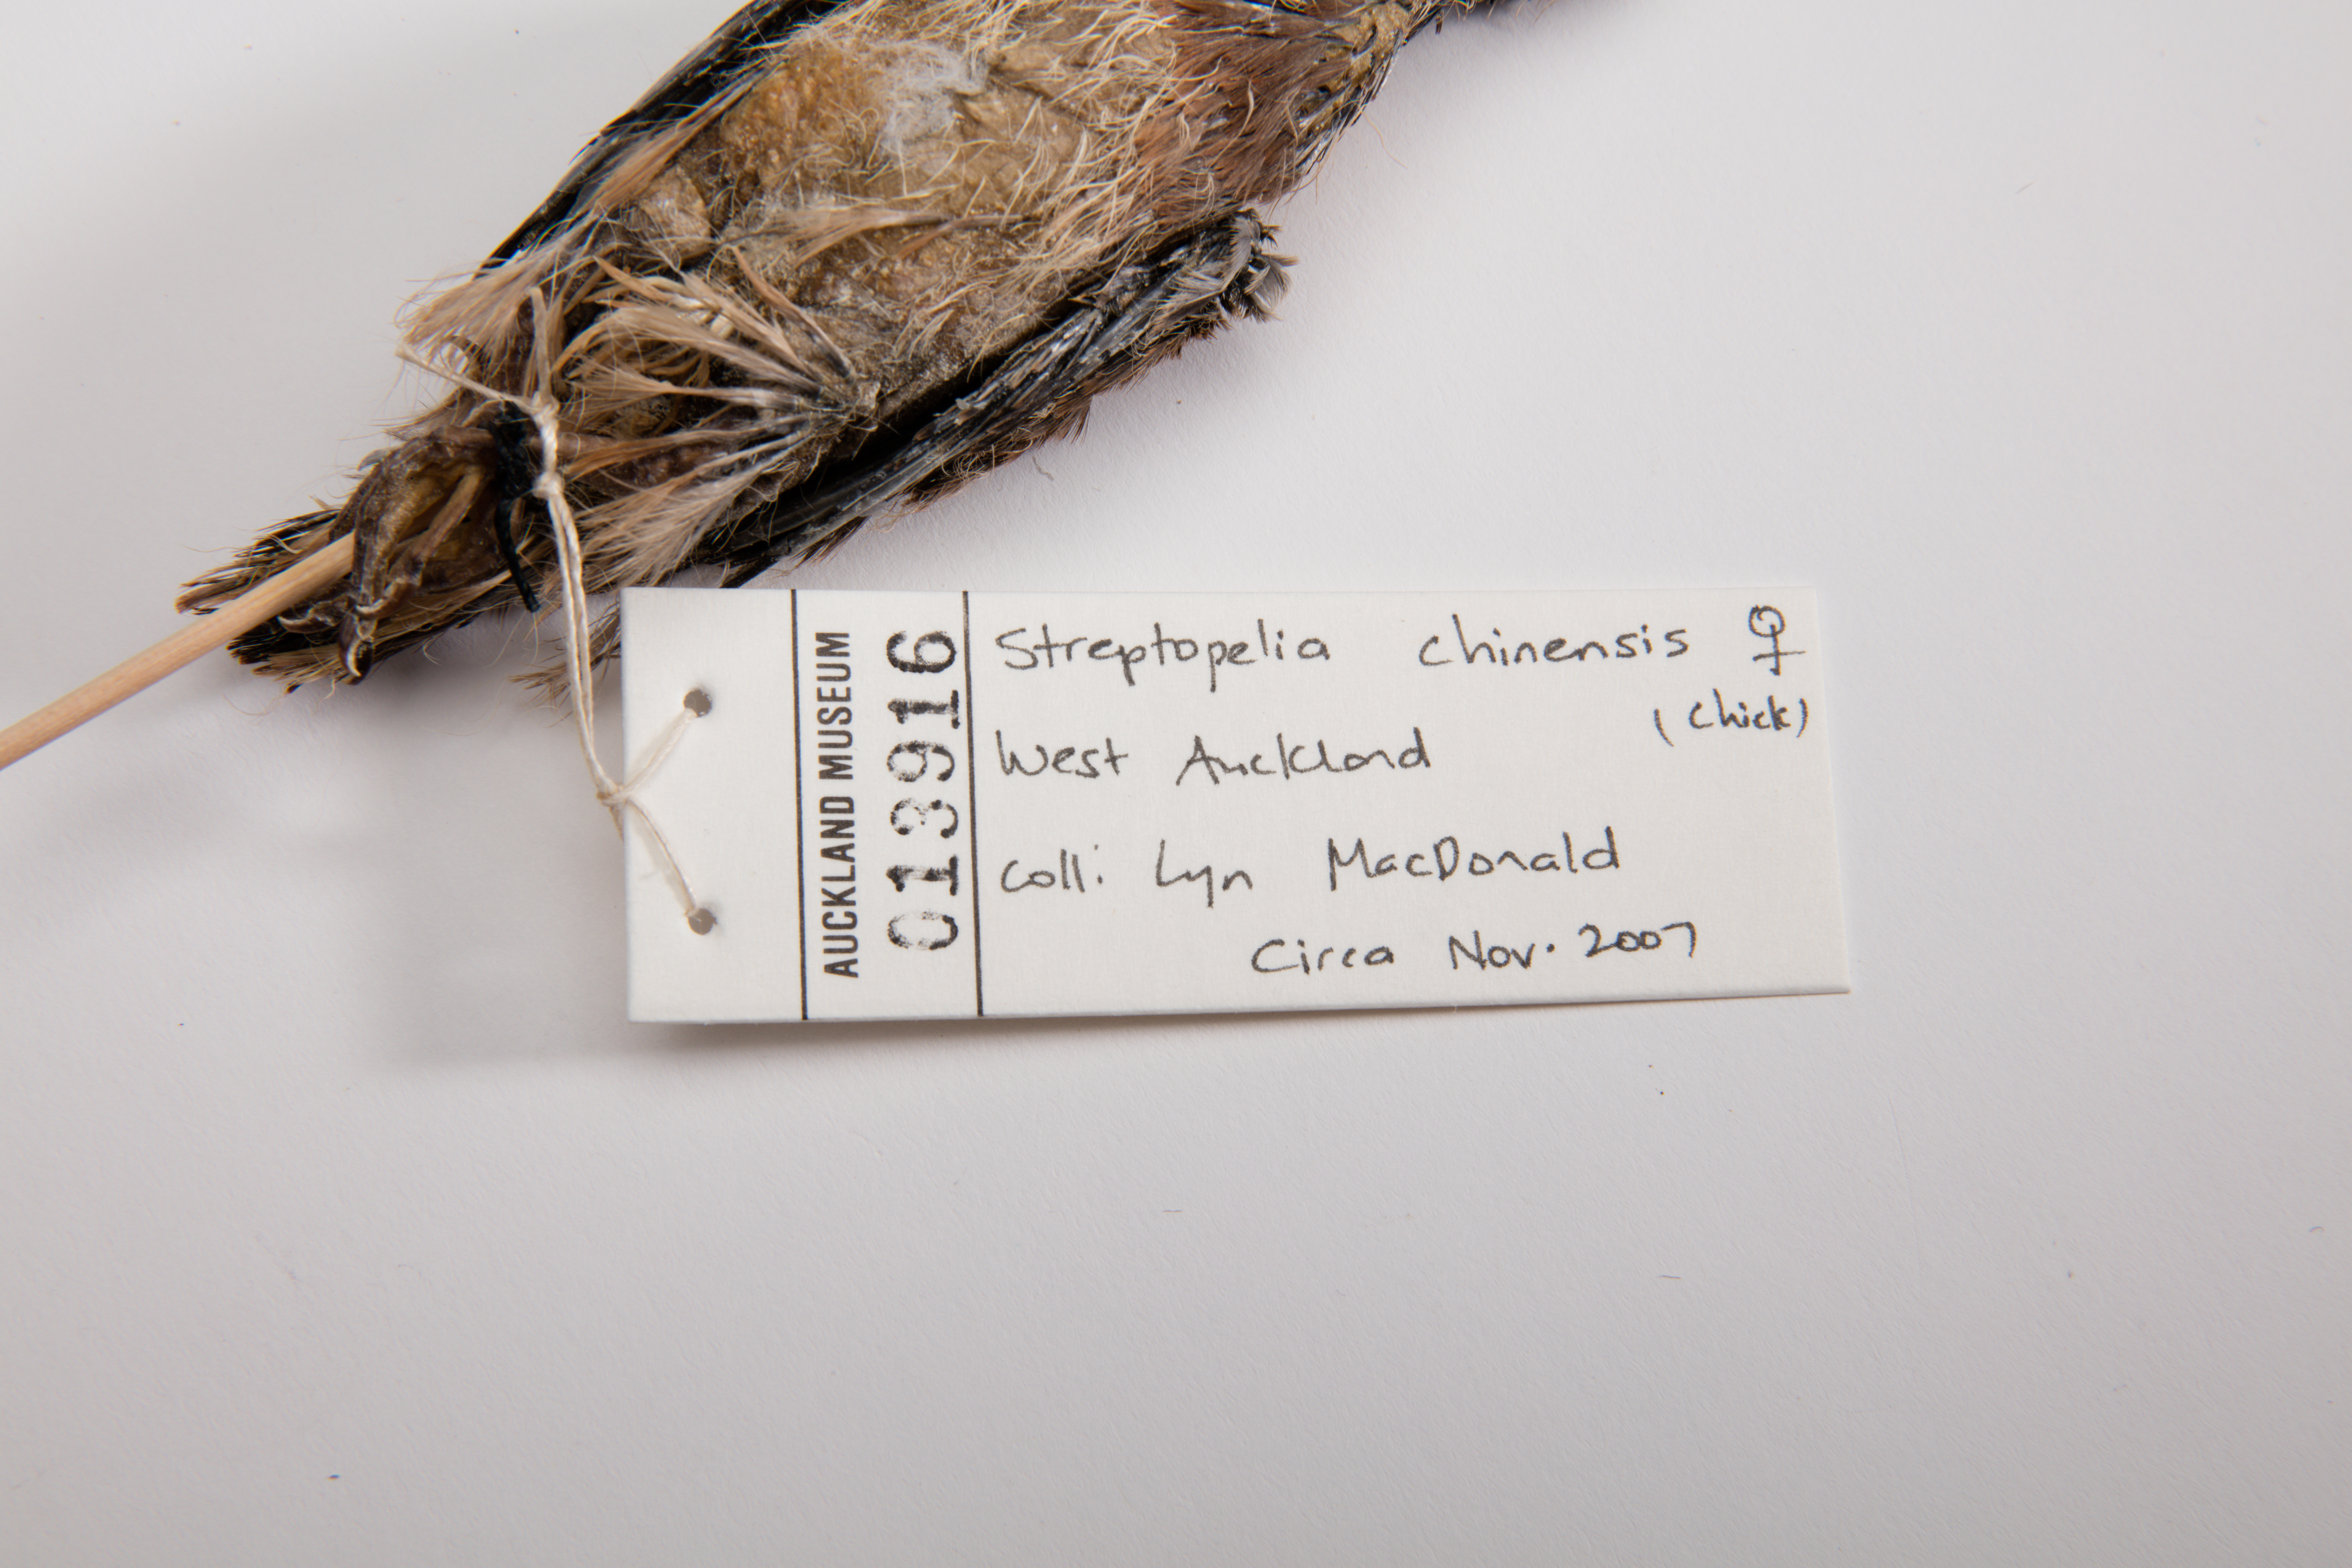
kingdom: Animalia
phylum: Chordata
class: Aves
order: Columbiformes
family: Columbidae
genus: Spilopelia
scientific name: Spilopelia chinensis
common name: Spotted dove
